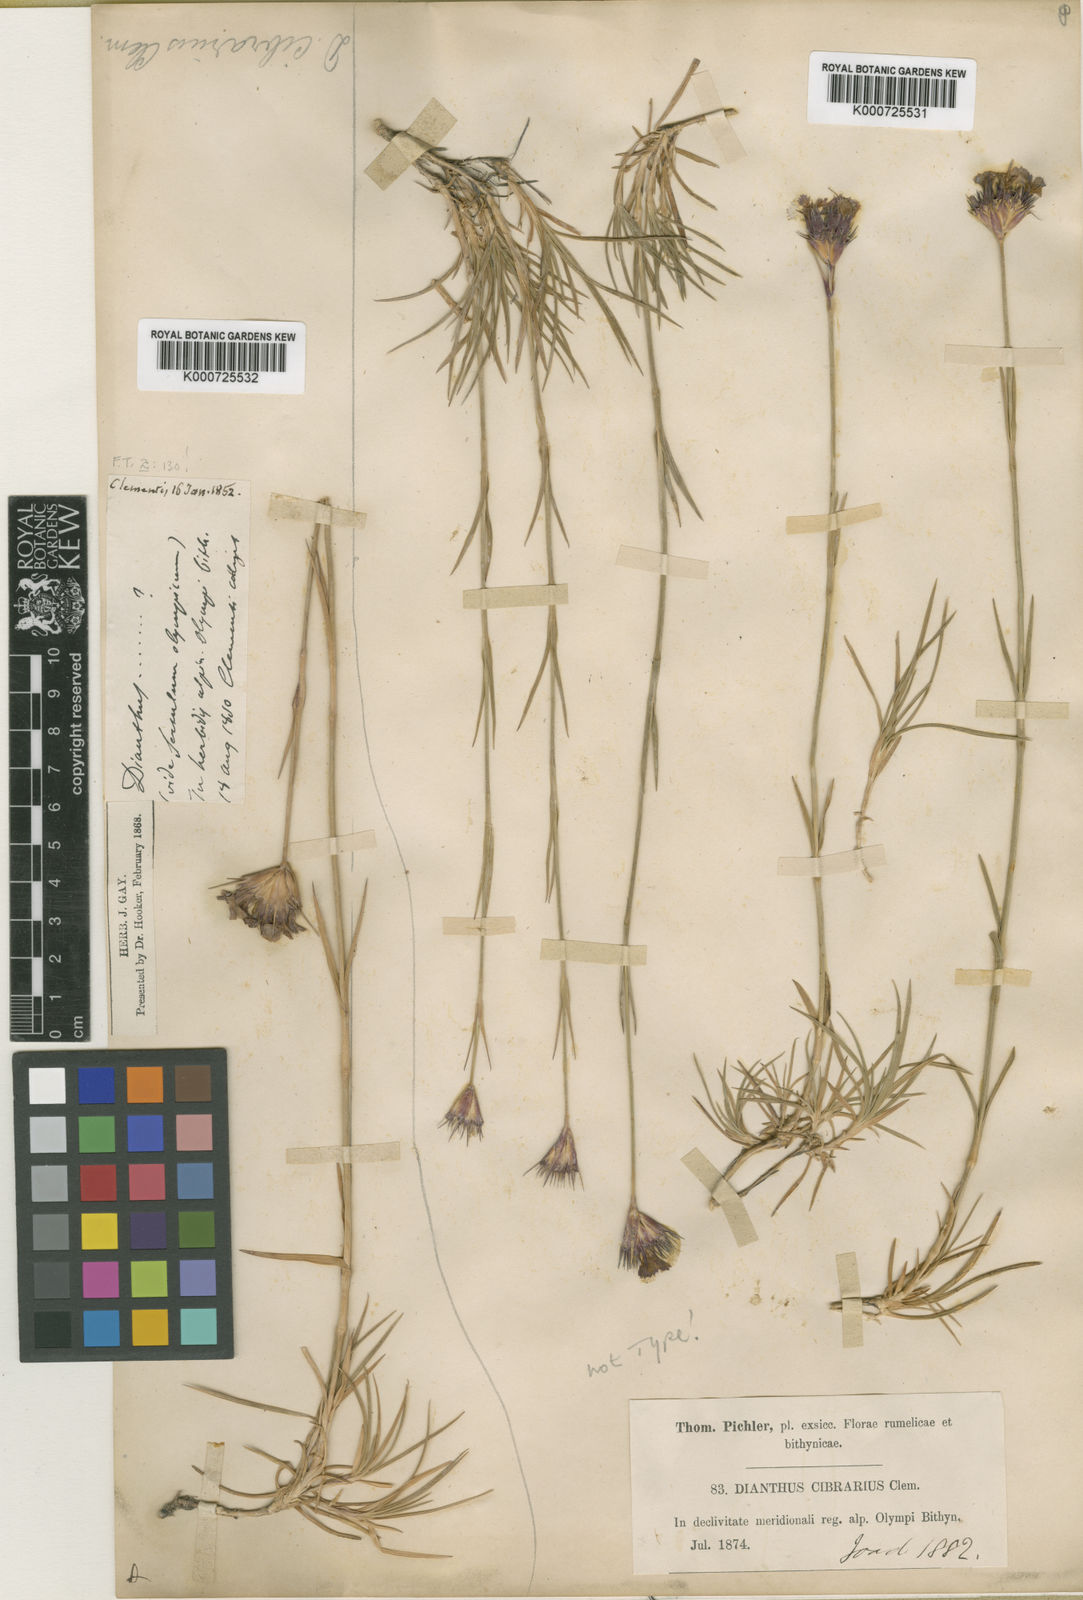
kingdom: Plantae
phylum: Tracheophyta
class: Magnoliopsida
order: Caryophyllales
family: Caryophyllaceae
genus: Dianthus
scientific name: Dianthus cibrarius
